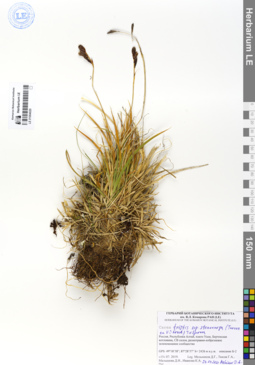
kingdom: Plantae
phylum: Tracheophyta
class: Liliopsida
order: Poales
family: Cyperaceae
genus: Carex
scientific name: Carex stenocarpa
